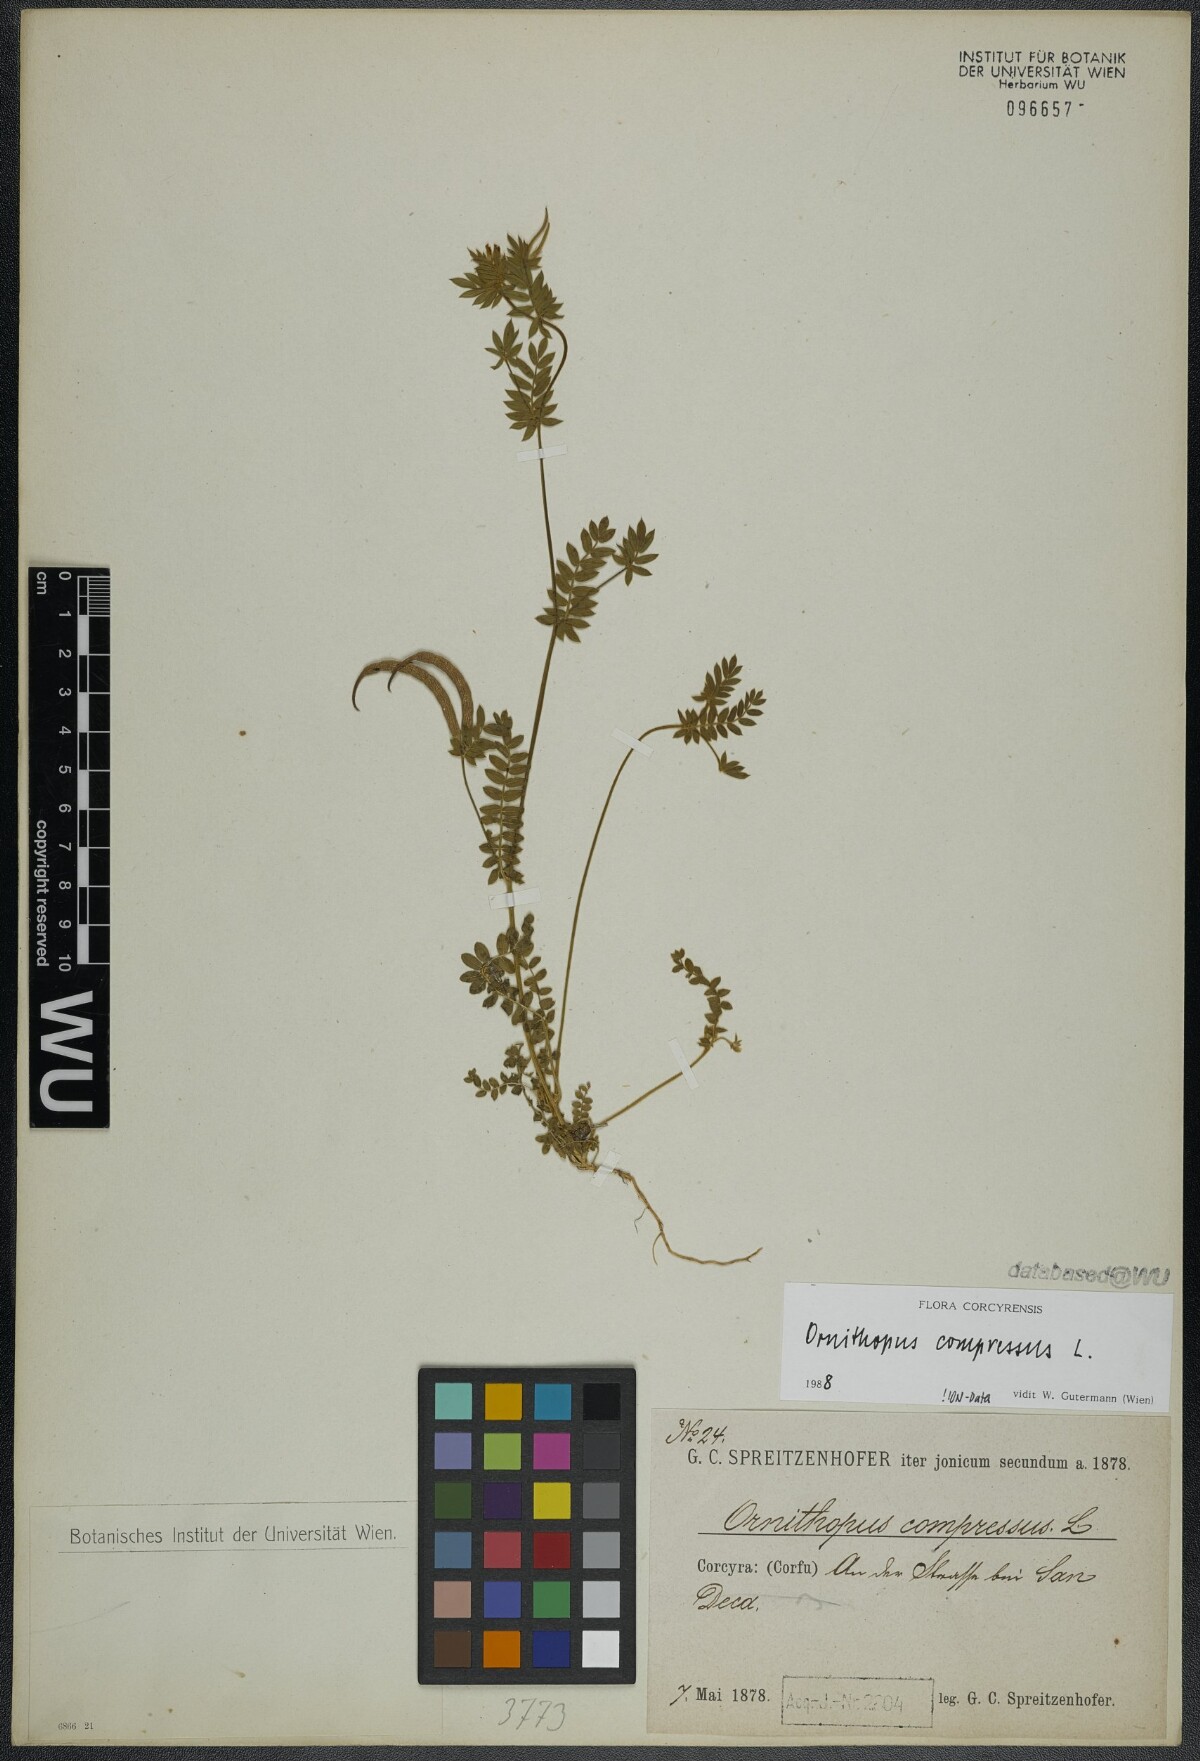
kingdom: Plantae
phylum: Tracheophyta
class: Magnoliopsida
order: Fabales
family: Fabaceae
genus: Ornithopus
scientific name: Ornithopus compressus
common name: Yellow serradella
